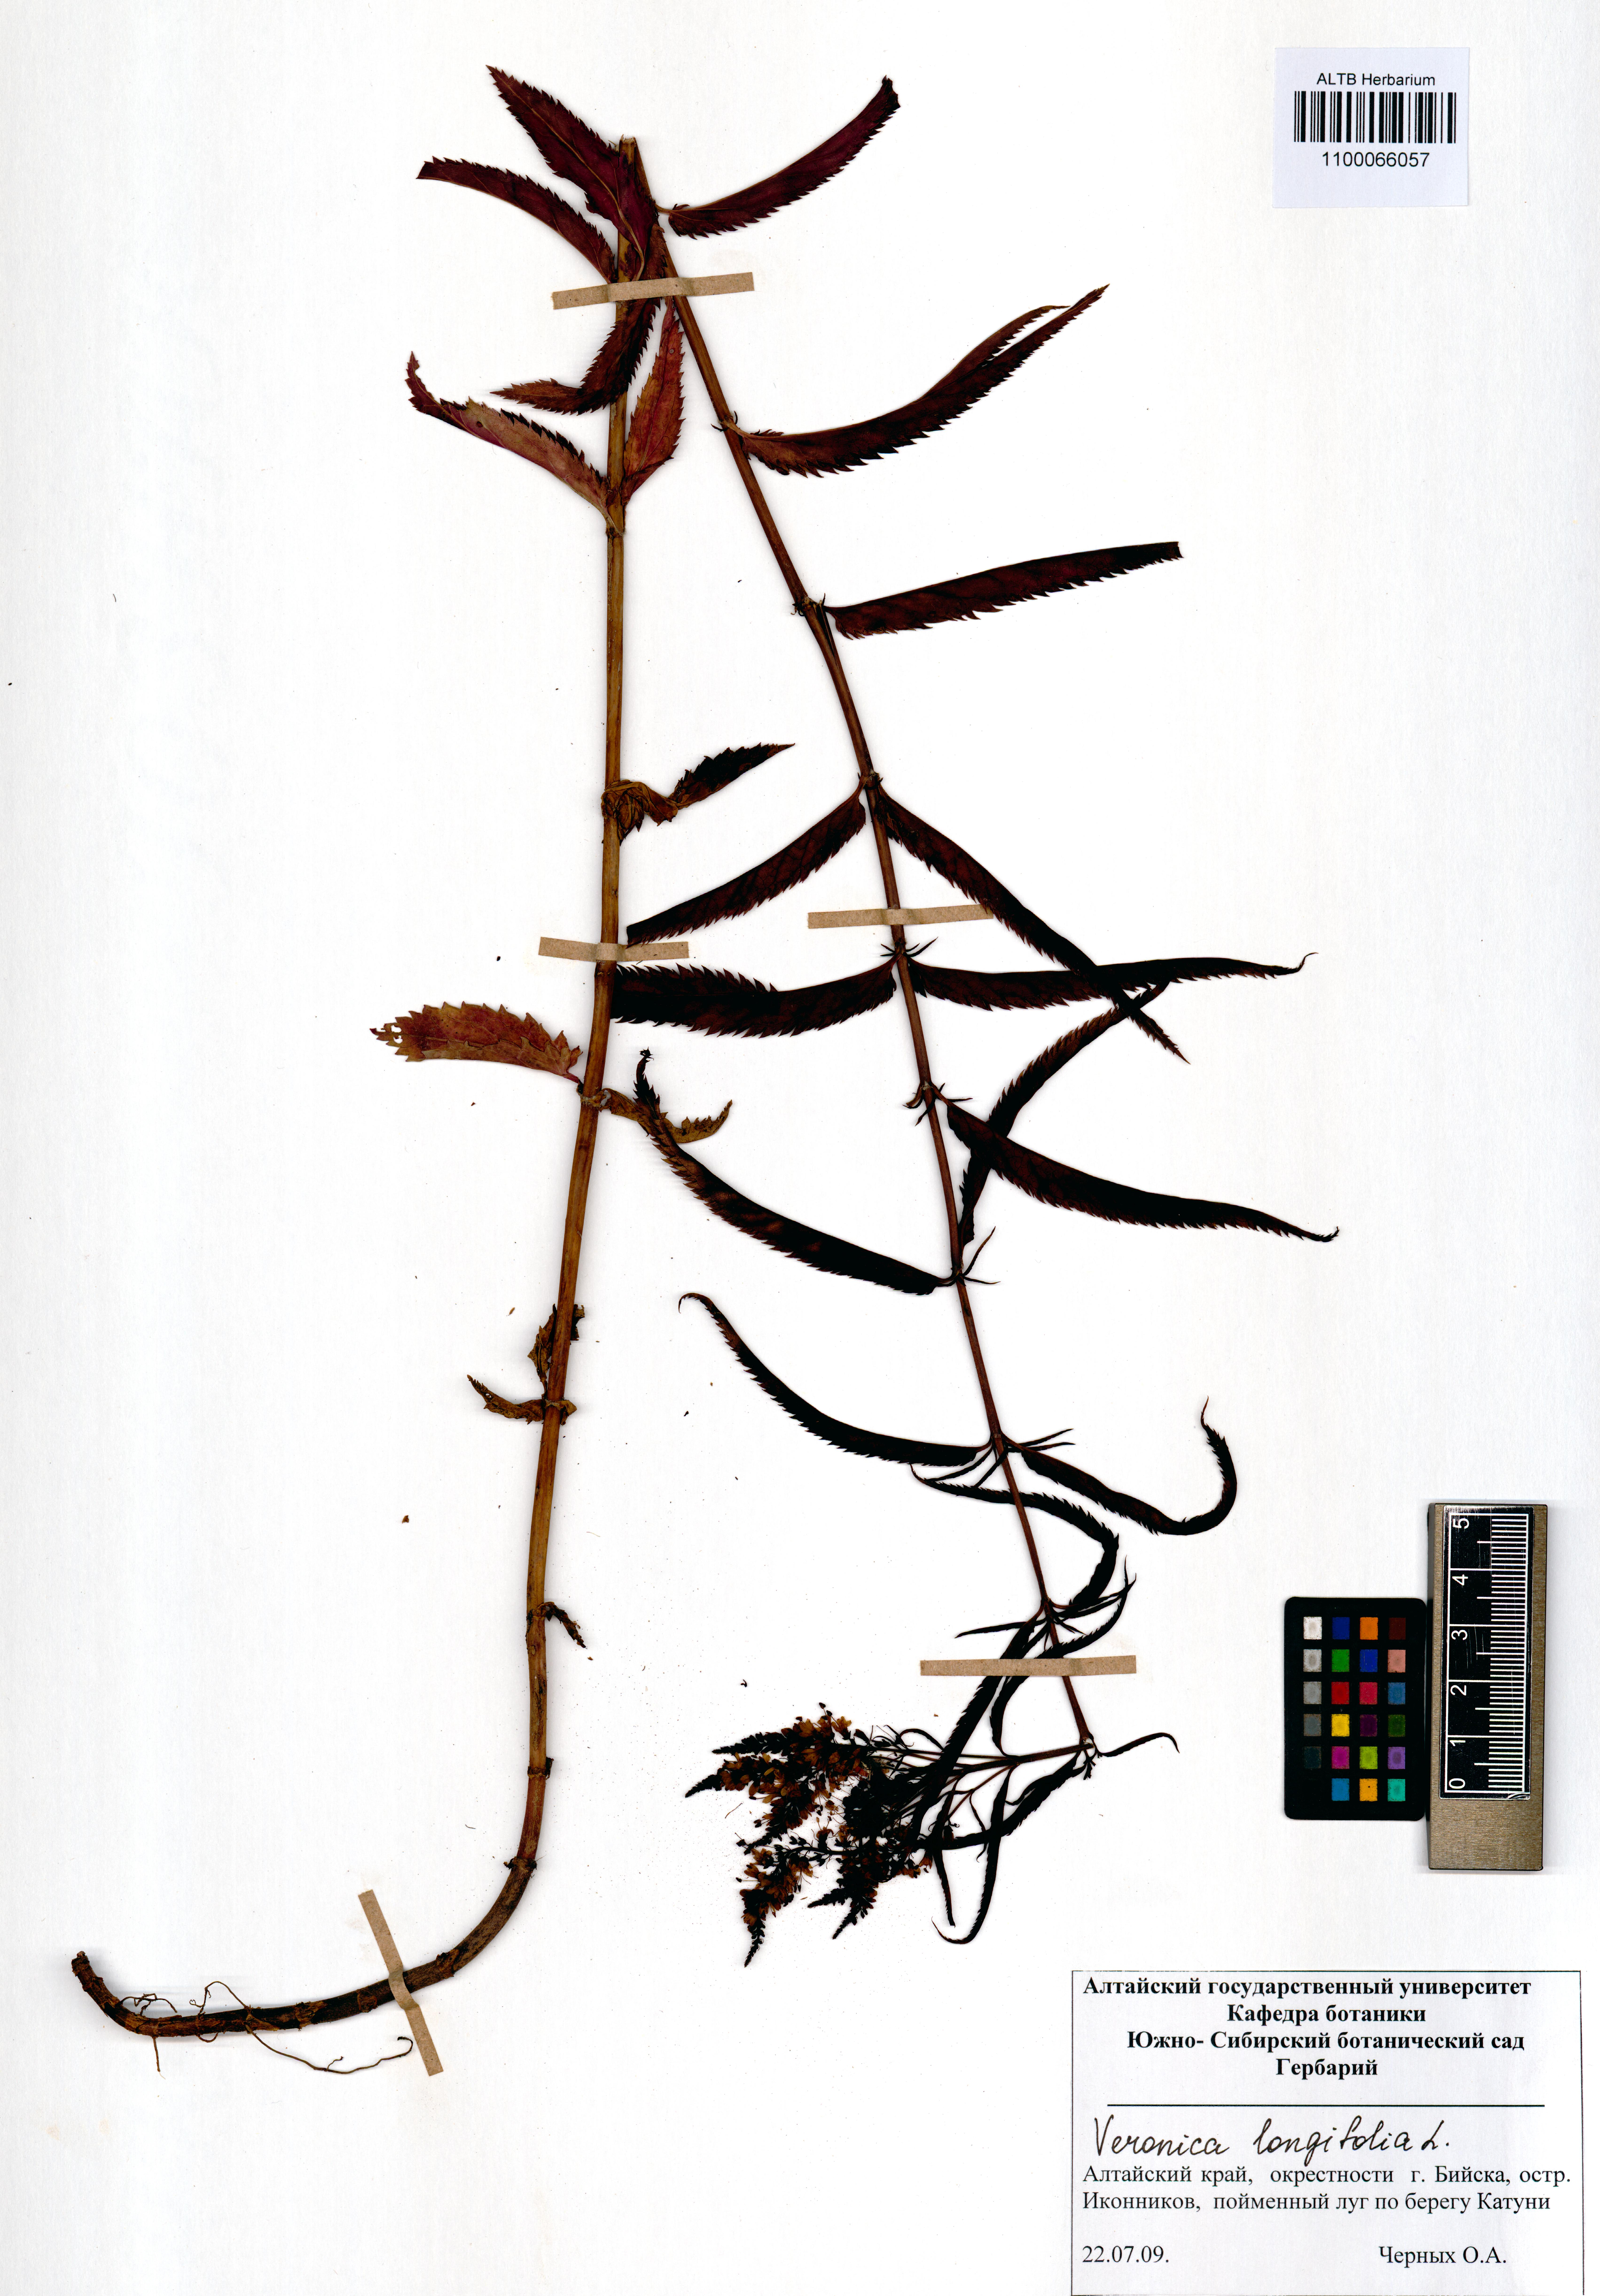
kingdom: Plantae
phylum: Tracheophyta
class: Magnoliopsida
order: Lamiales
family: Plantaginaceae
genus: Veronica
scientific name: Veronica longifolia
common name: Garden speedwell
